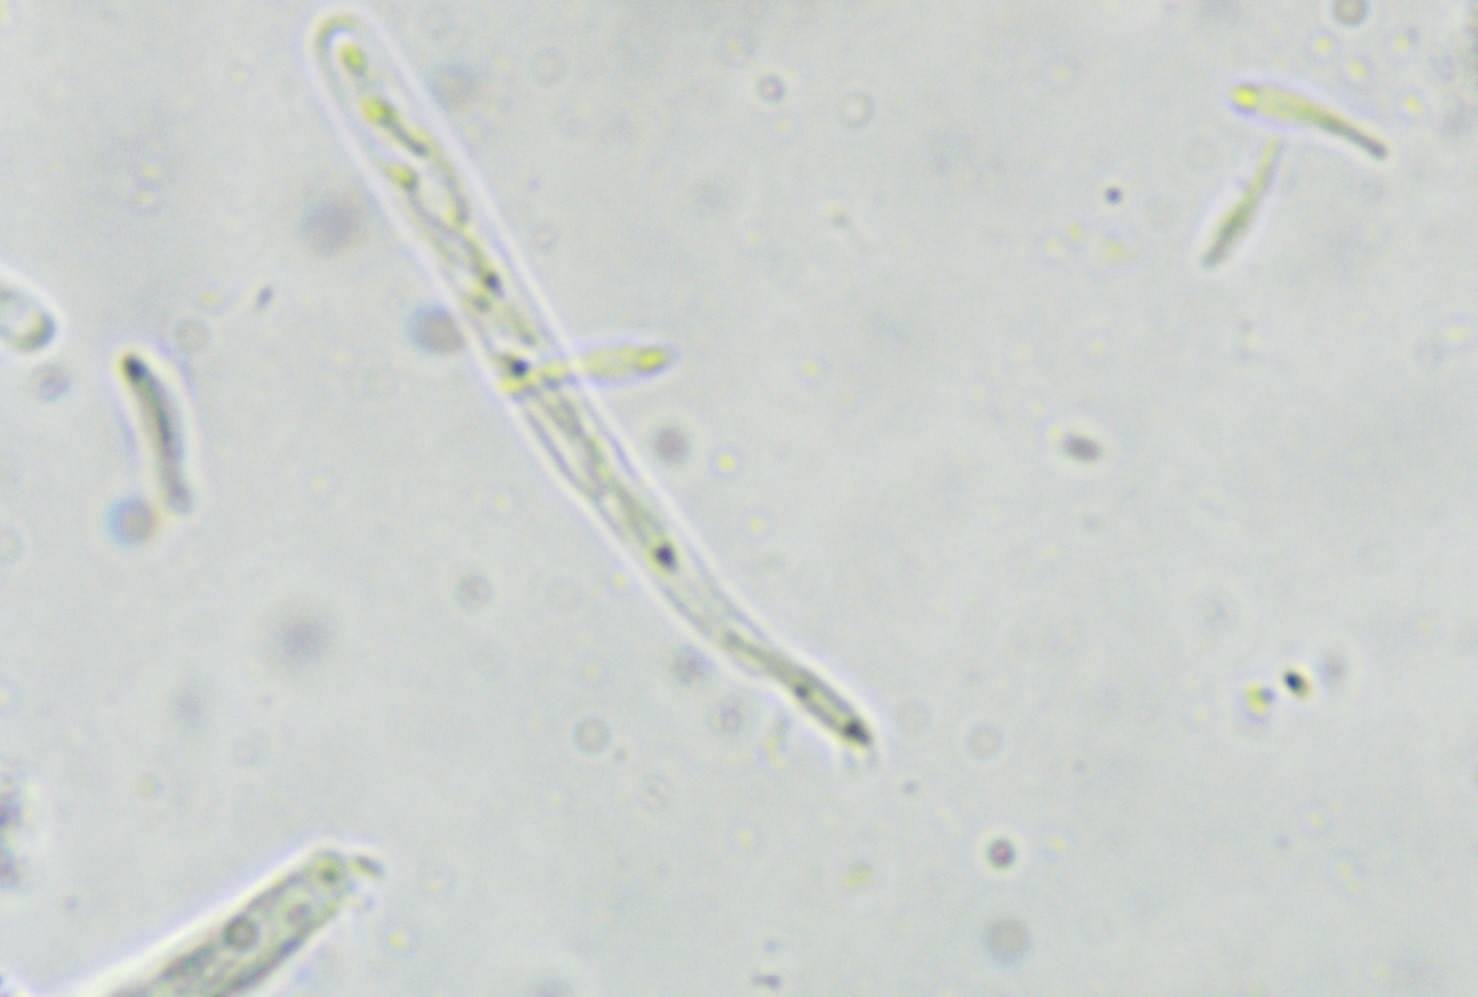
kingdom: Fungi
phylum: Ascomycota
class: Orbiliomycetes
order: Orbiliales
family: Orbiliaceae
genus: Orbilia
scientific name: Orbilia phragmotricha
